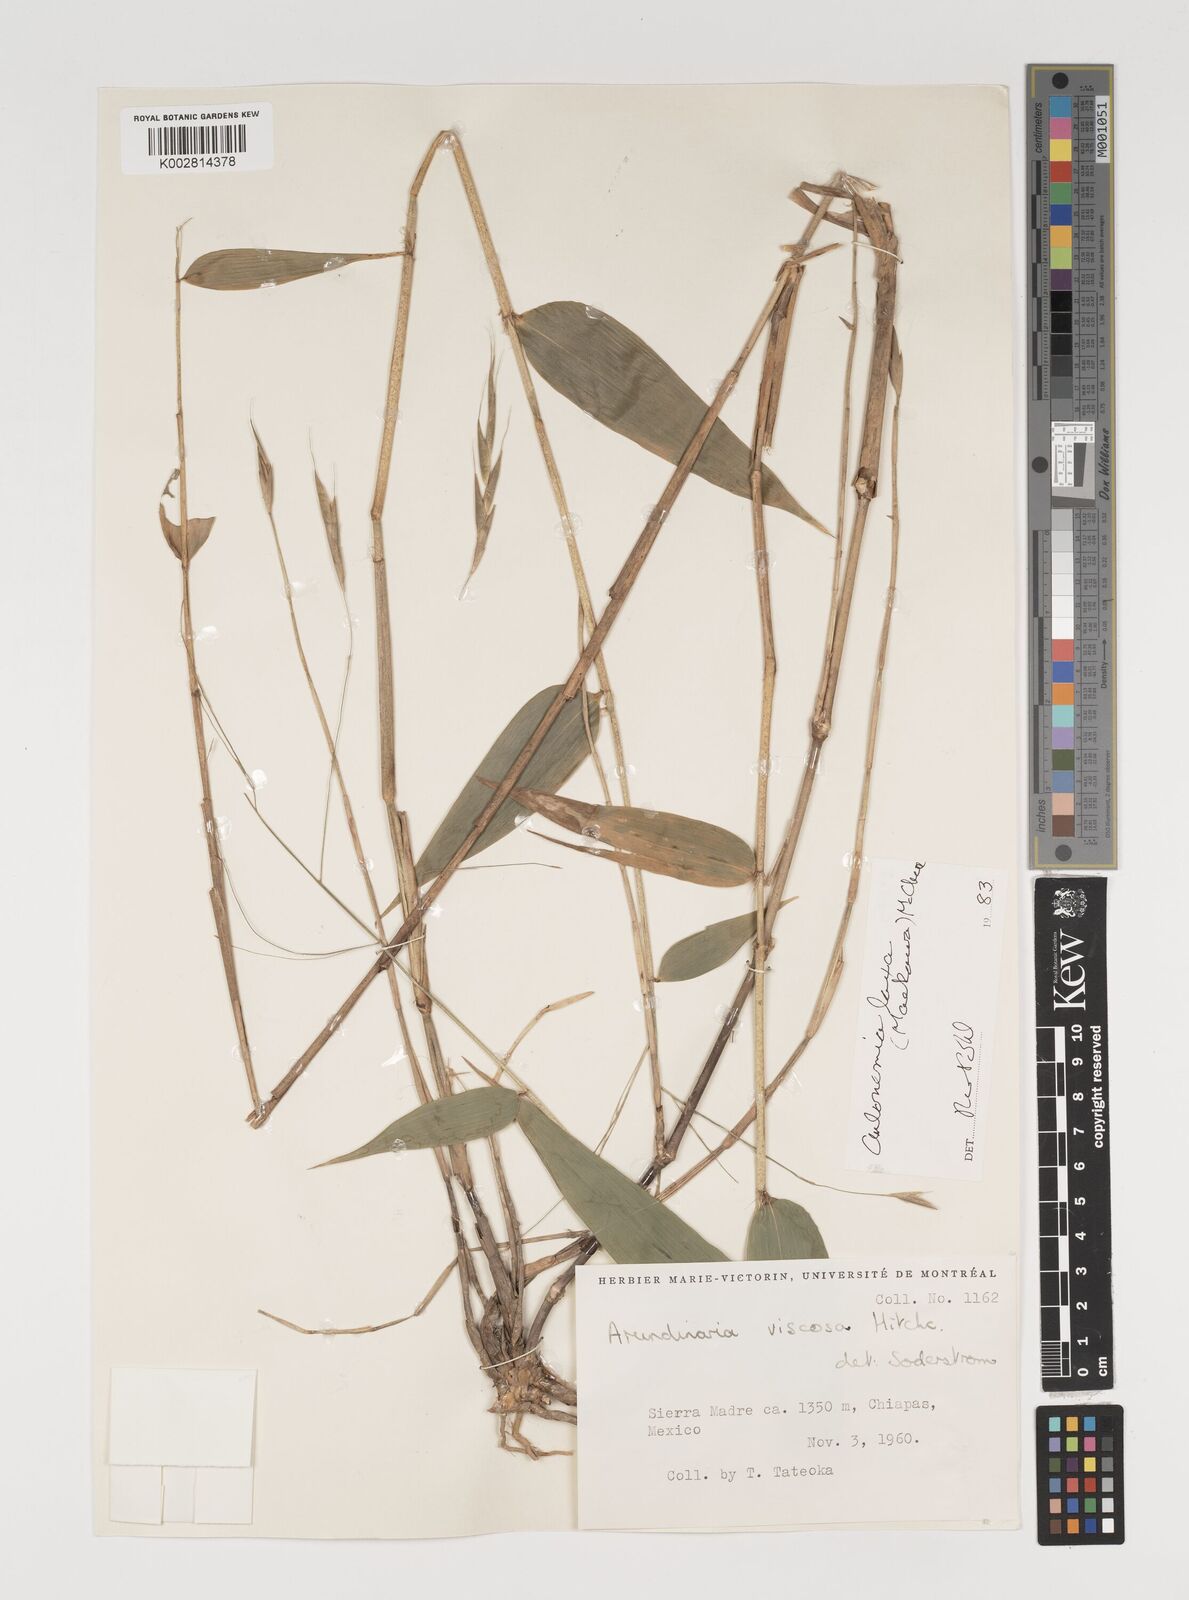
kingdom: Plantae
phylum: Tracheophyta
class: Liliopsida
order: Poales
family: Poaceae
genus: Aulonemia
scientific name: Aulonemia laxa
